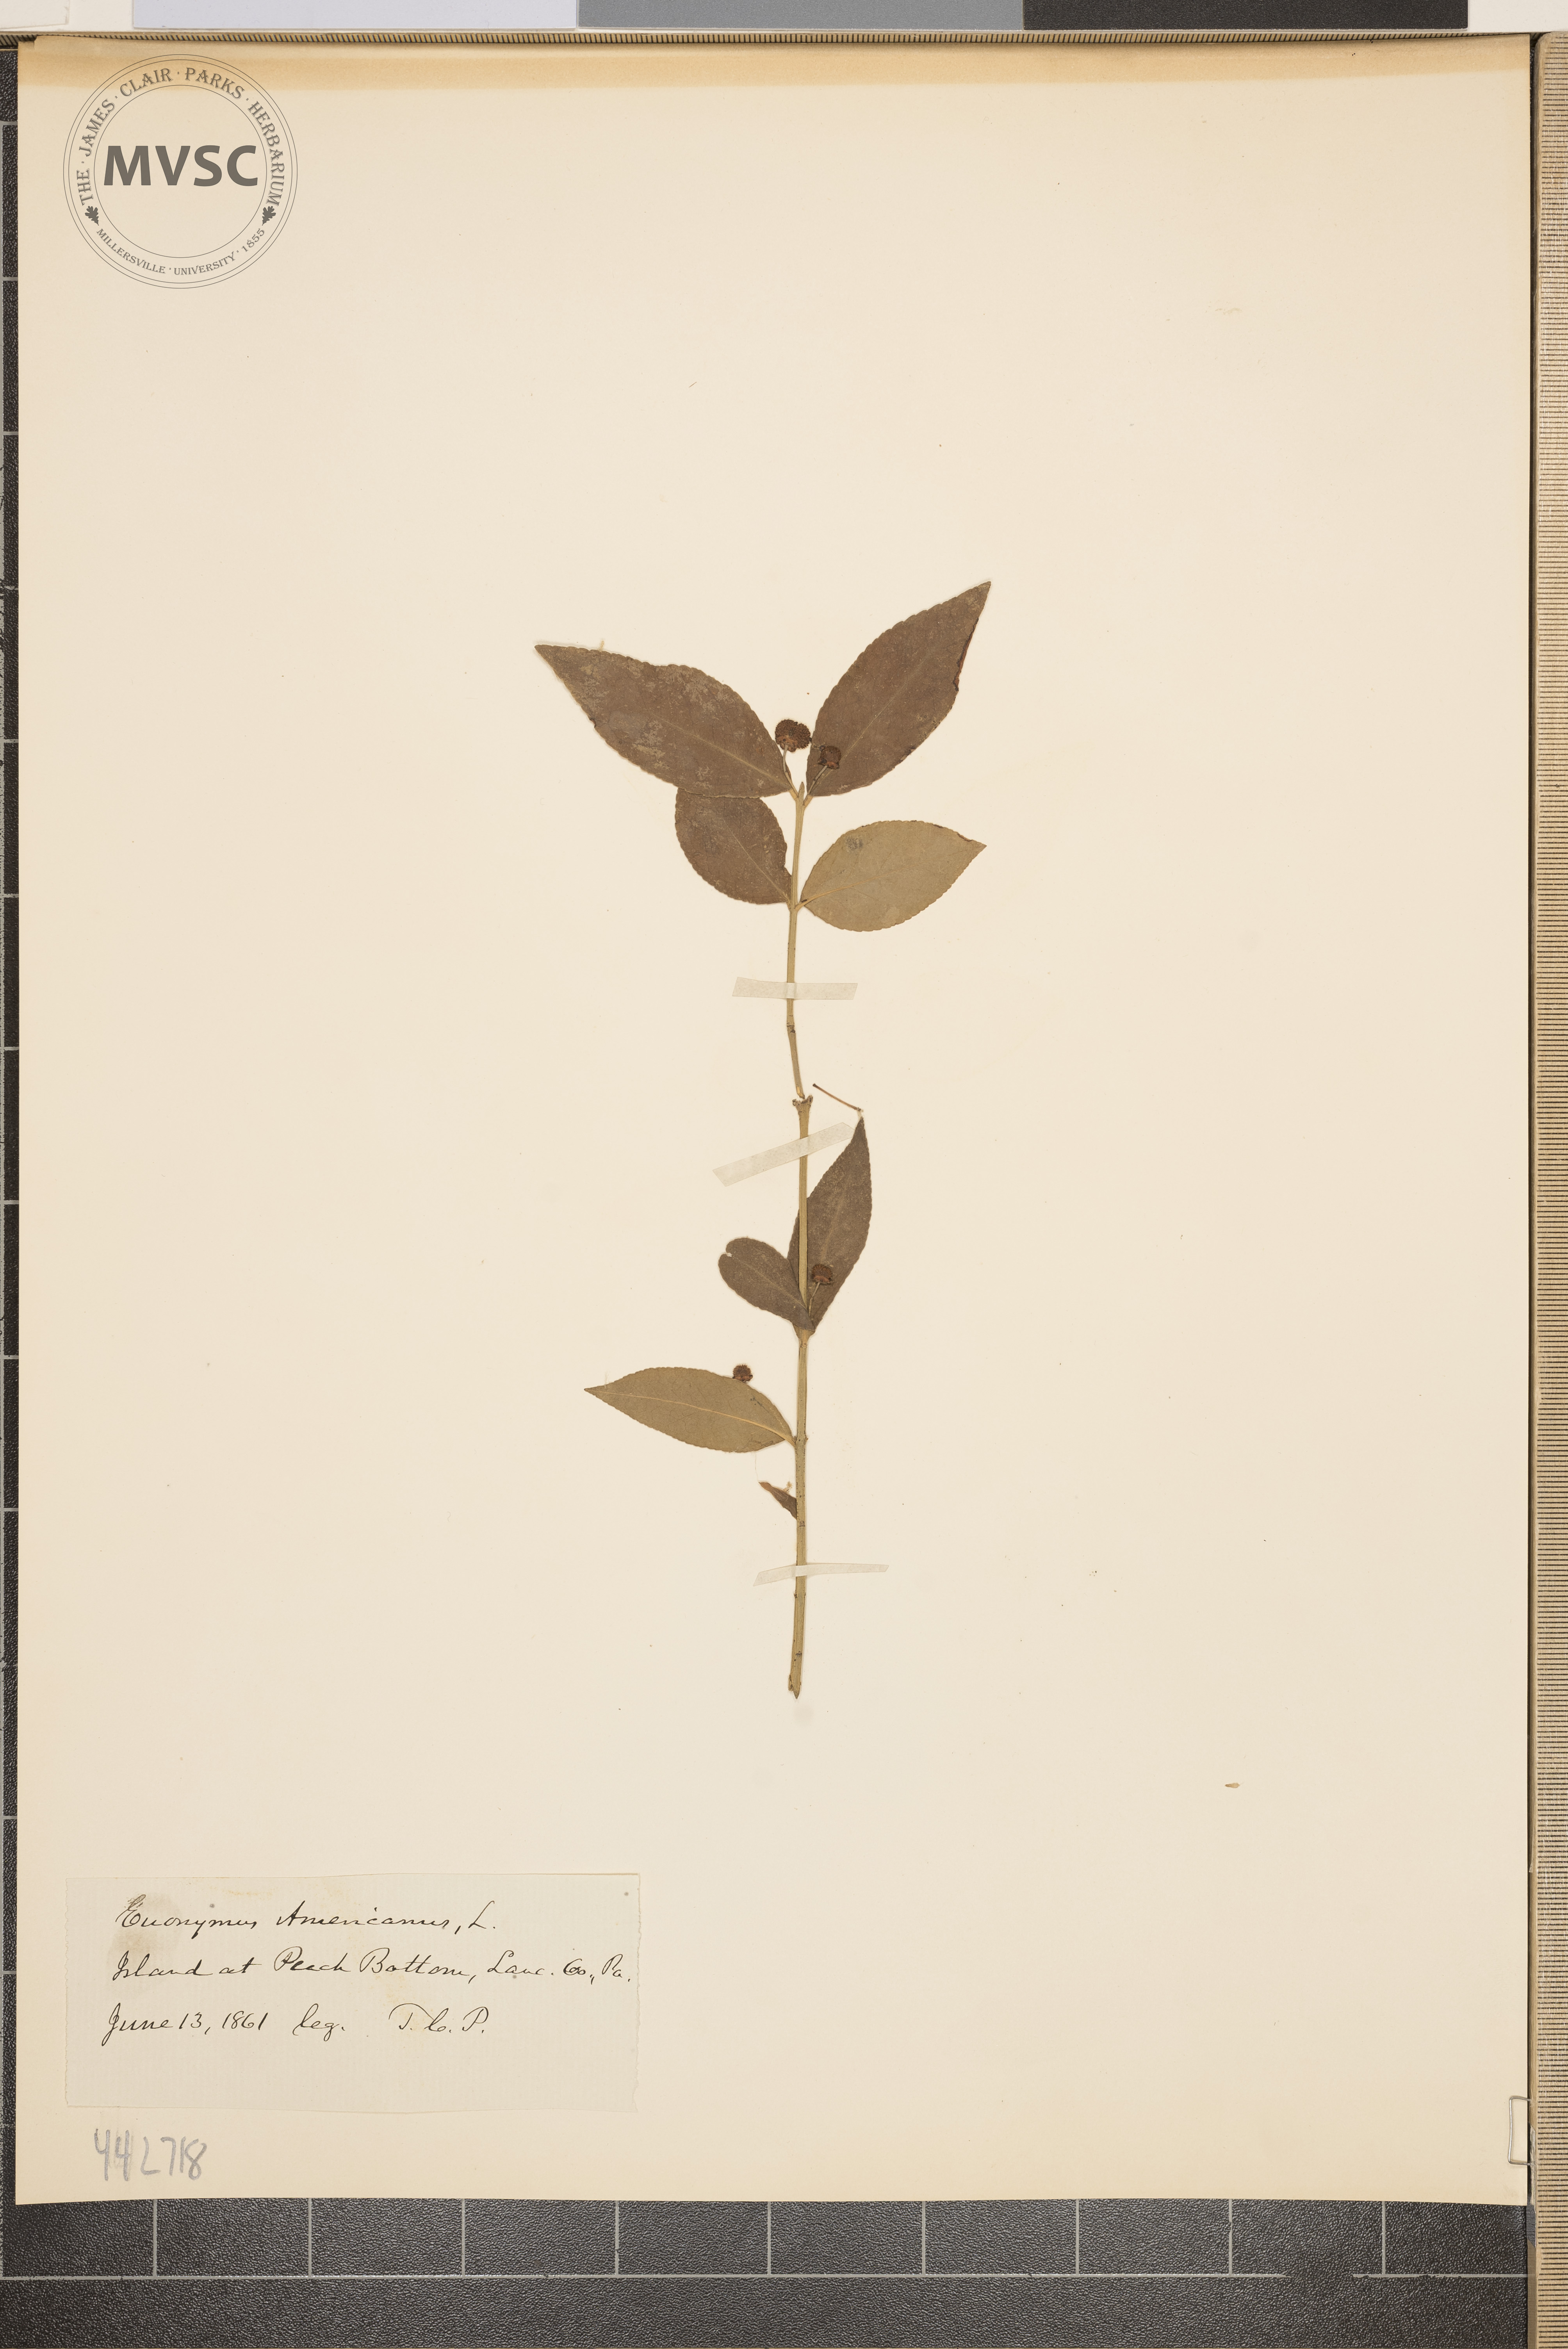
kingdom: Plantae
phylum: Tracheophyta
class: Magnoliopsida
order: Celastrales
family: Celastraceae
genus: Euonymus
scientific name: Euonymus americanus
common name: Bursting-heart
